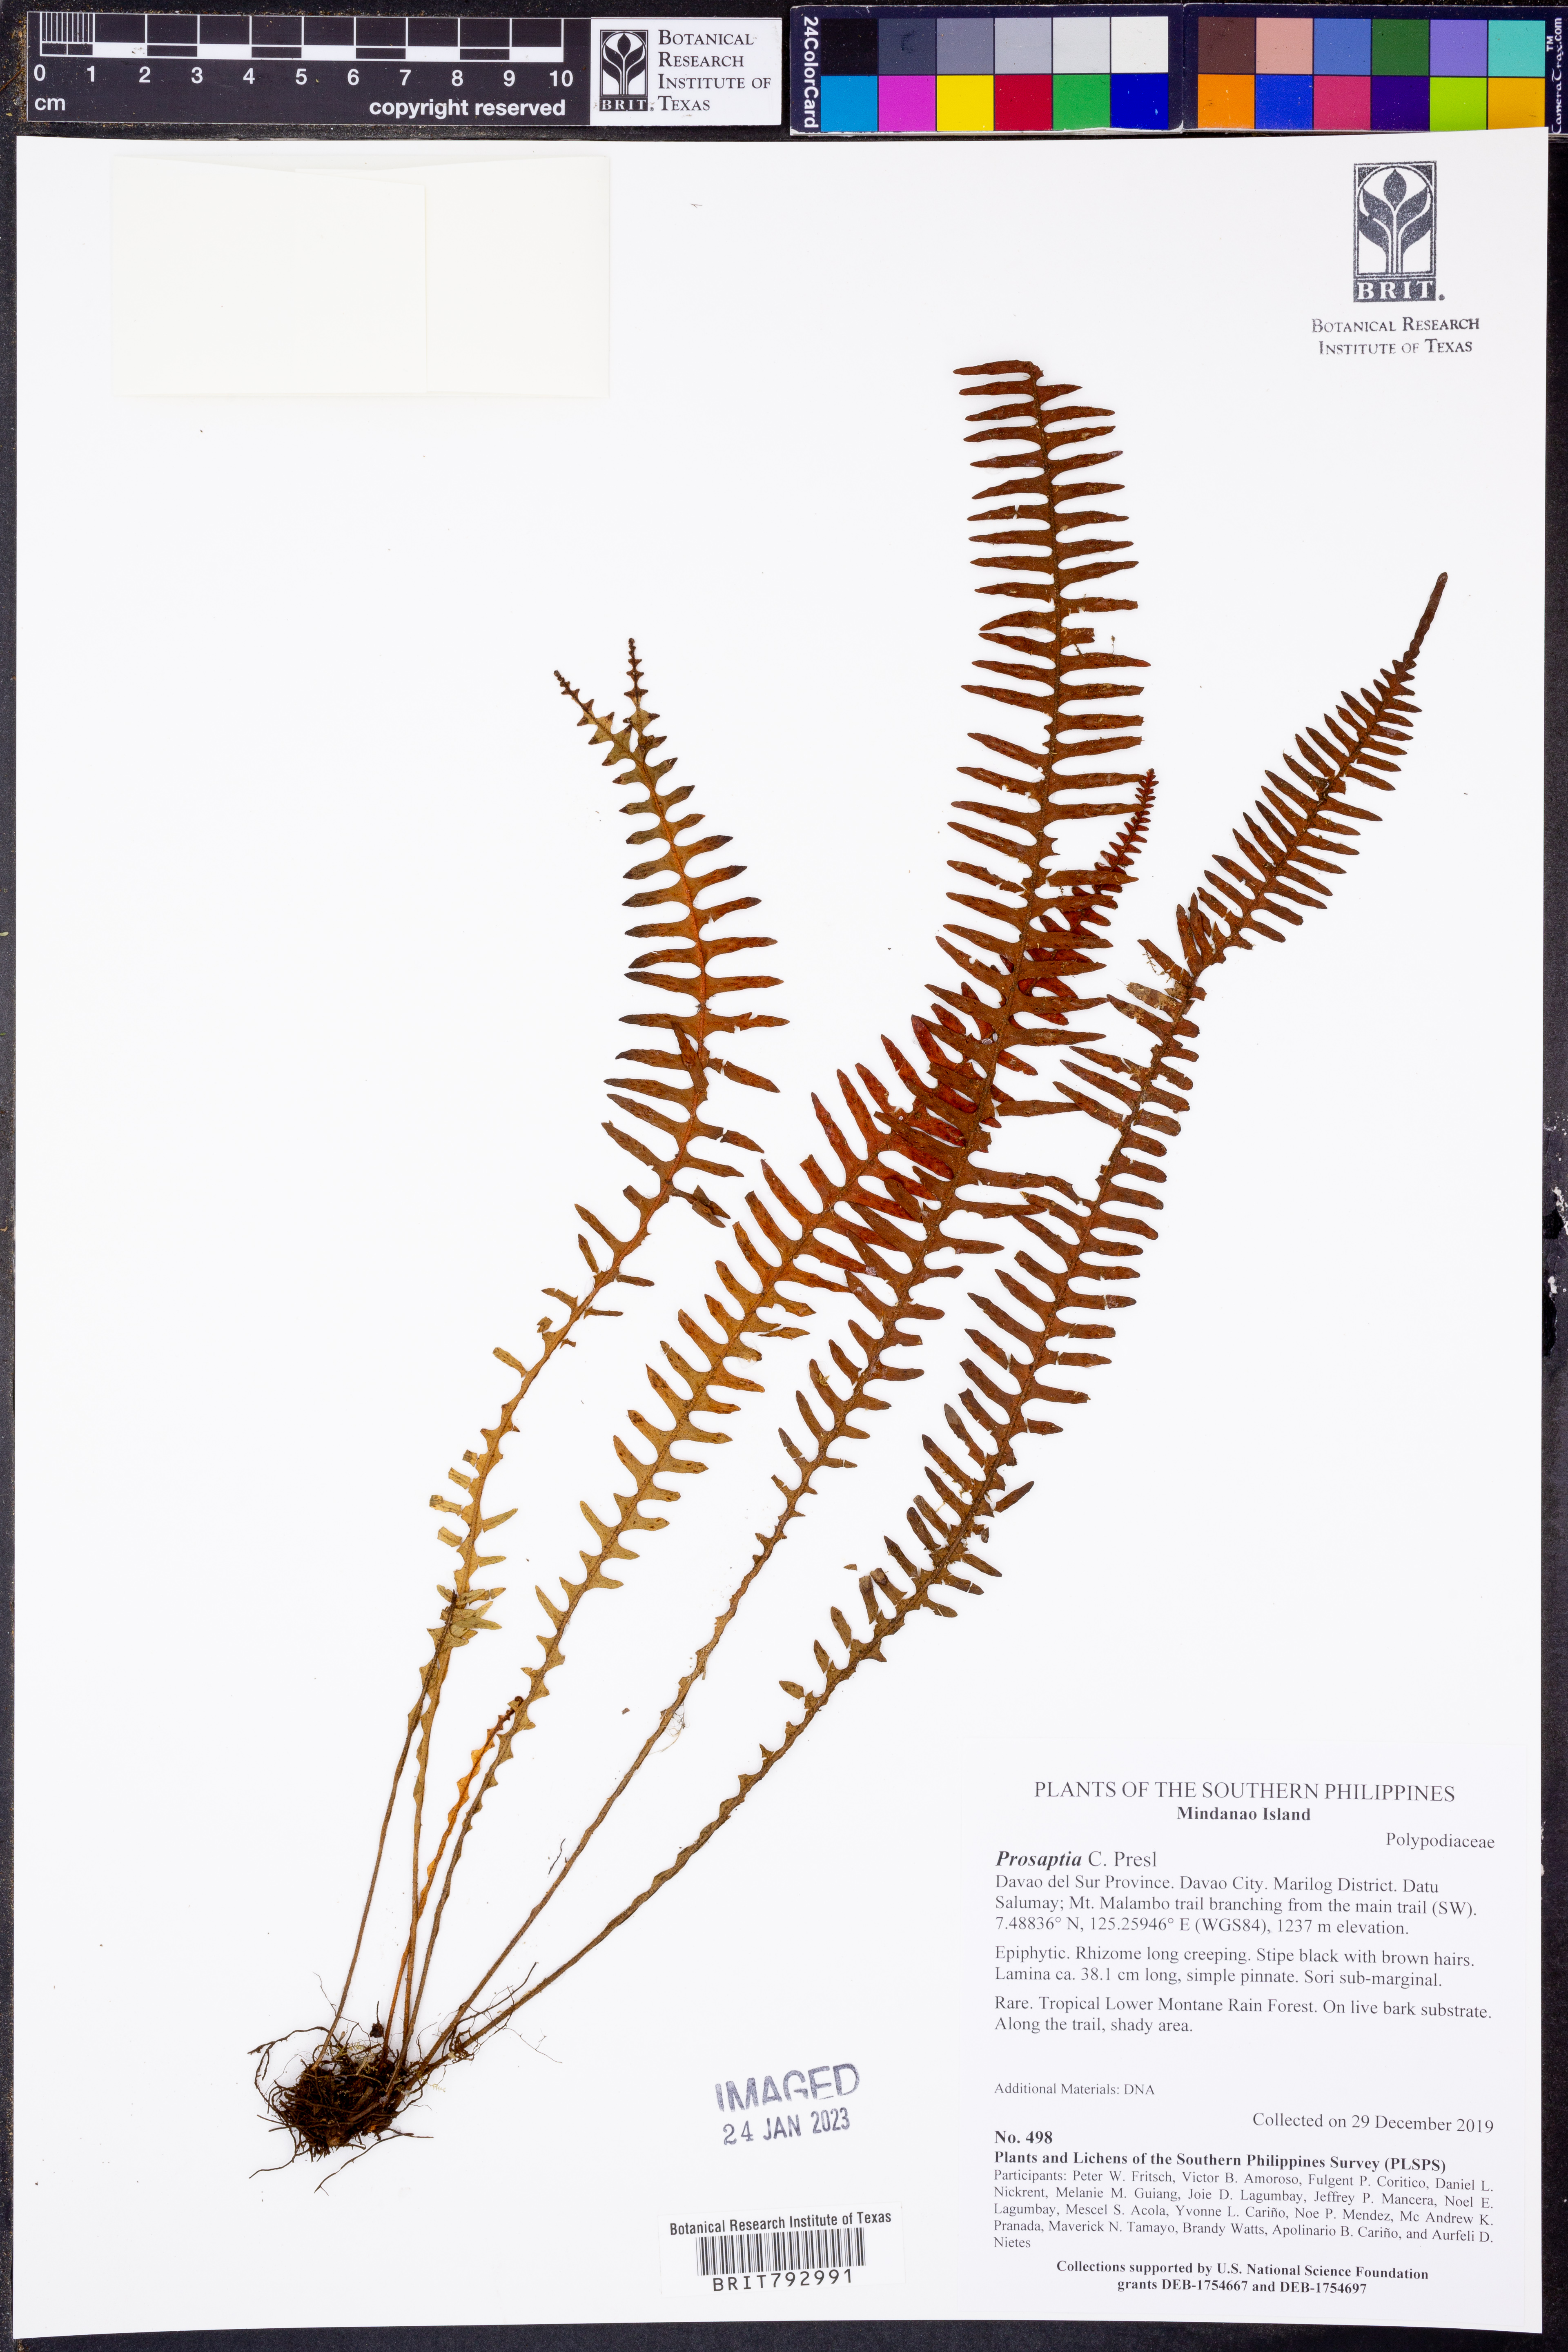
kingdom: Plantae
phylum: Tracheophyta
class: Polypodiopsida
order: Polypodiales
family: Polypodiaceae
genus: Prosaptia
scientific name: Prosaptia
